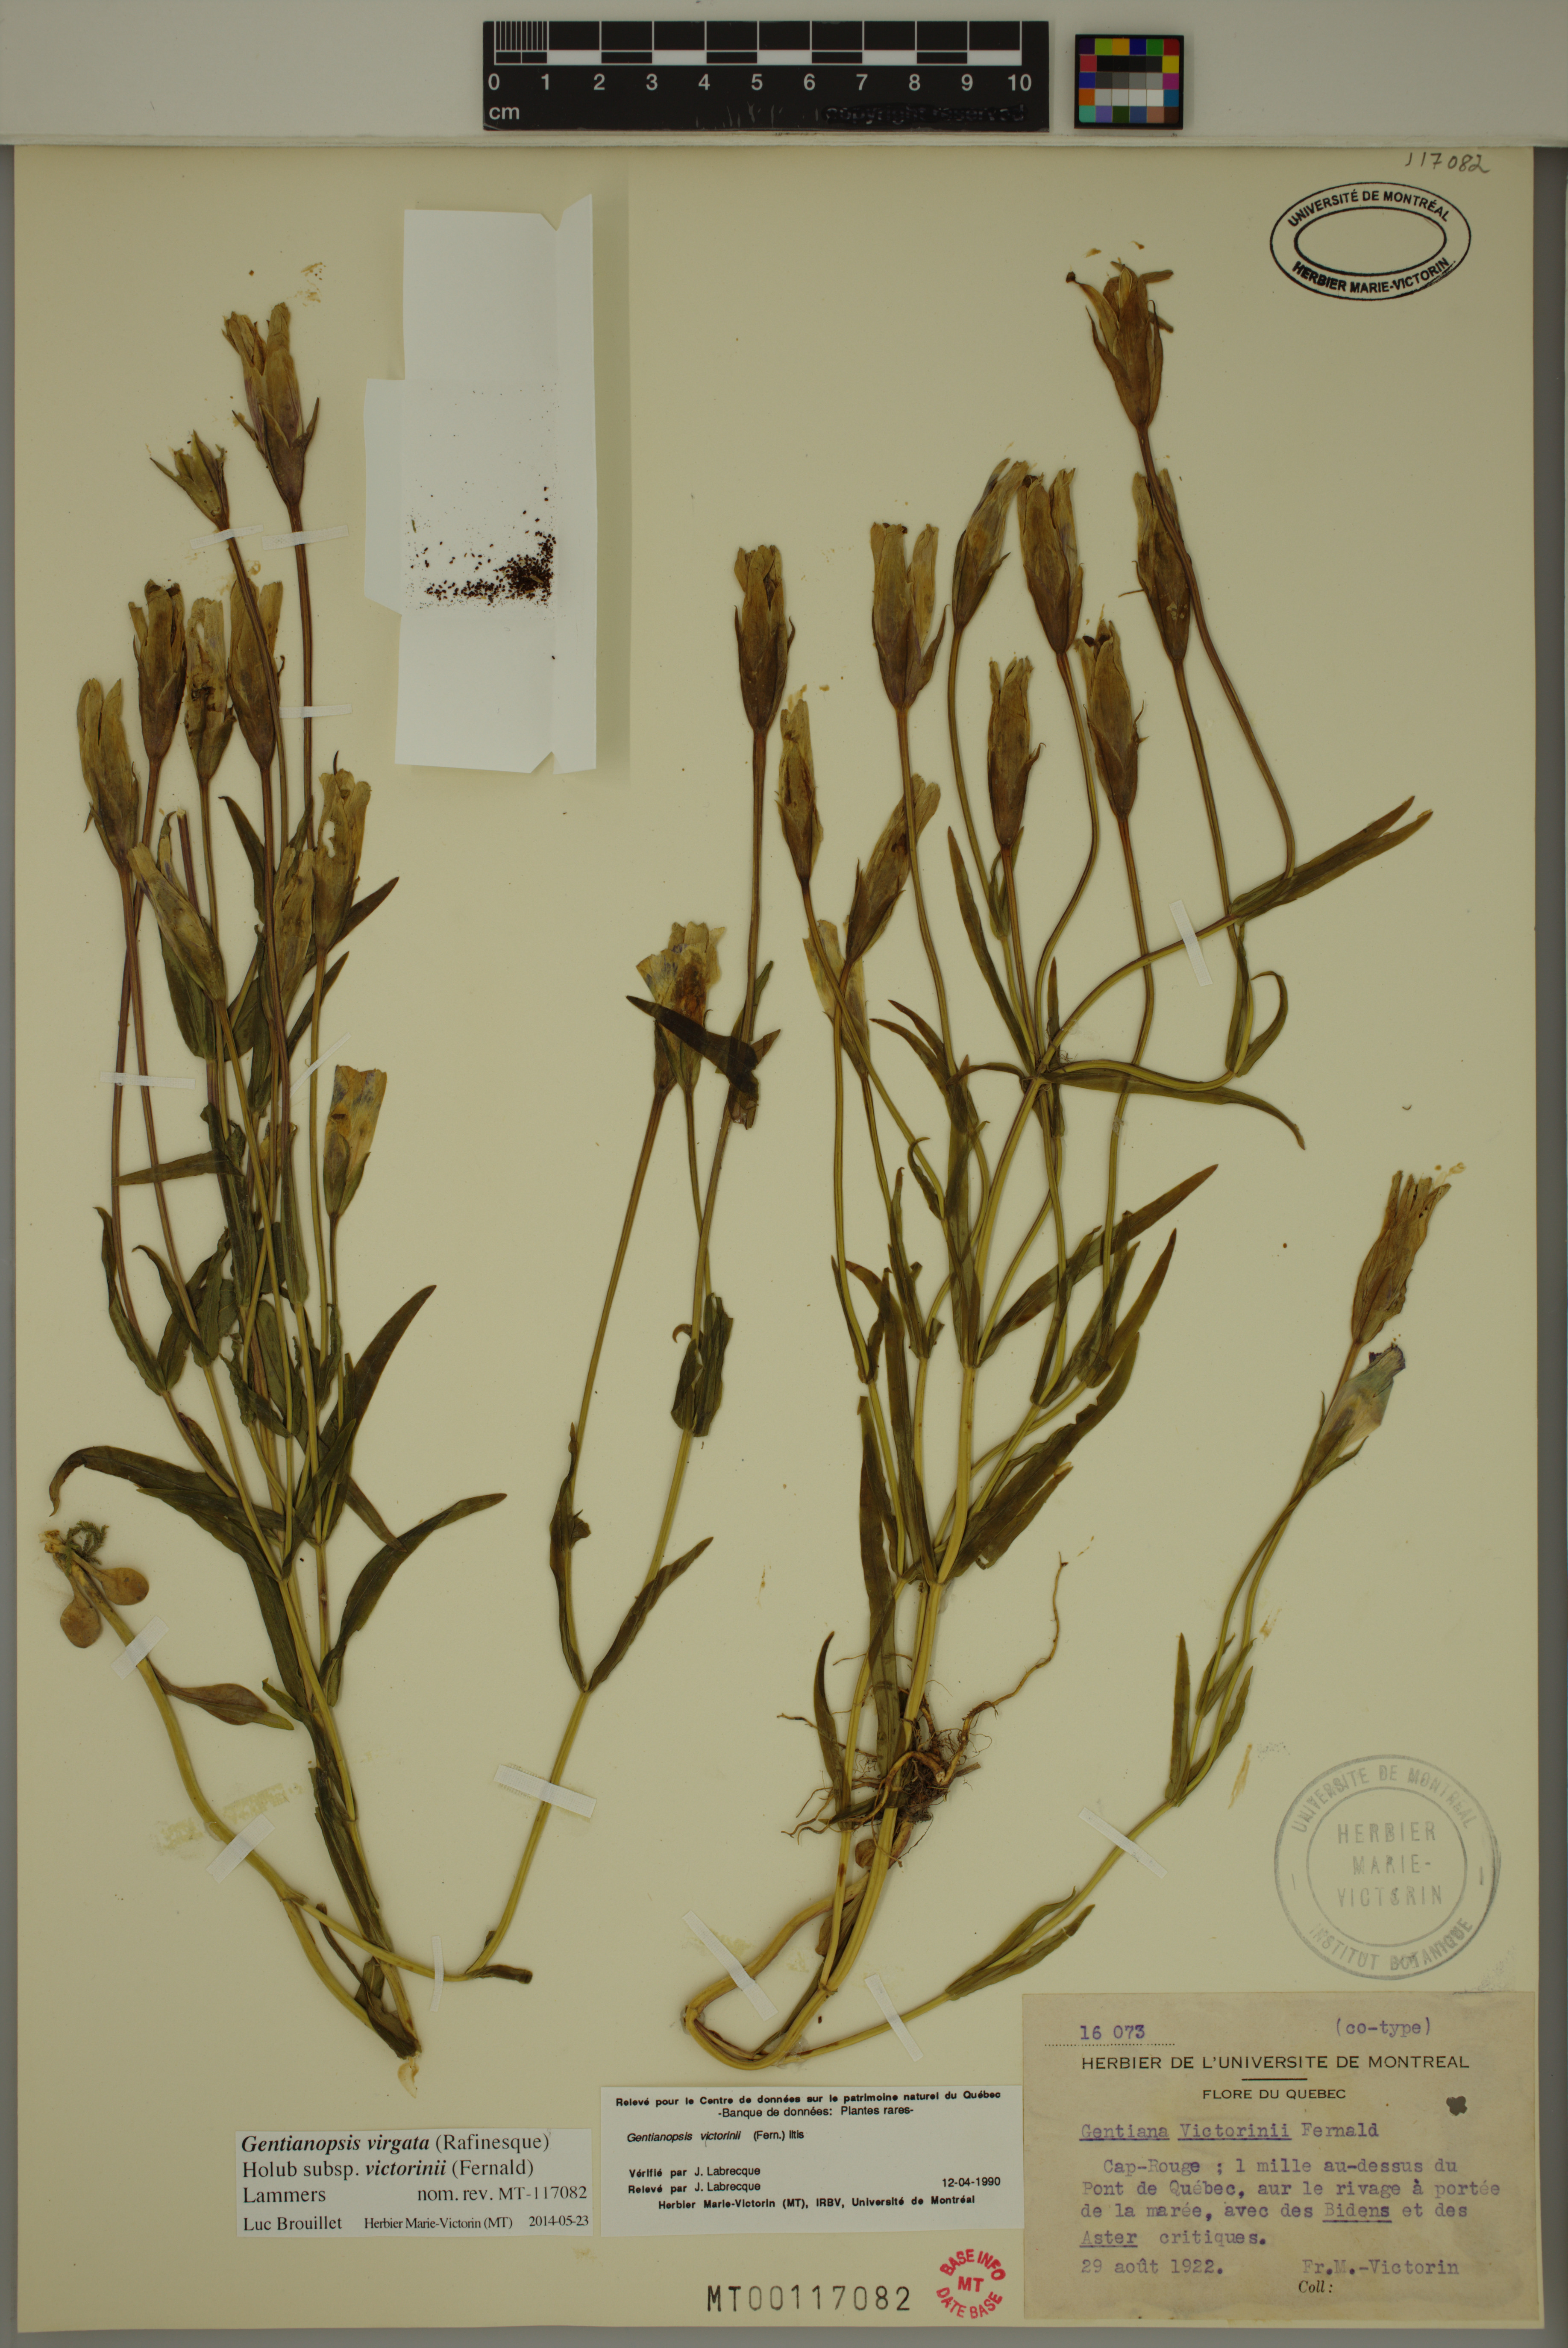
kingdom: Plantae
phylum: Tracheophyta
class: Magnoliopsida
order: Gentianales
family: Gentianaceae
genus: Gentianopsis
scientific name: Gentianopsis victorinii
